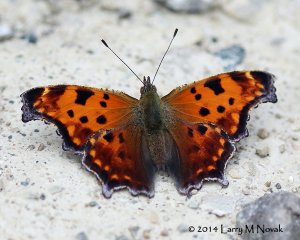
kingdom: Animalia
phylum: Arthropoda
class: Insecta
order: Lepidoptera
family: Nymphalidae
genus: Polygonia
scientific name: Polygonia comma
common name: Eastern Comma
